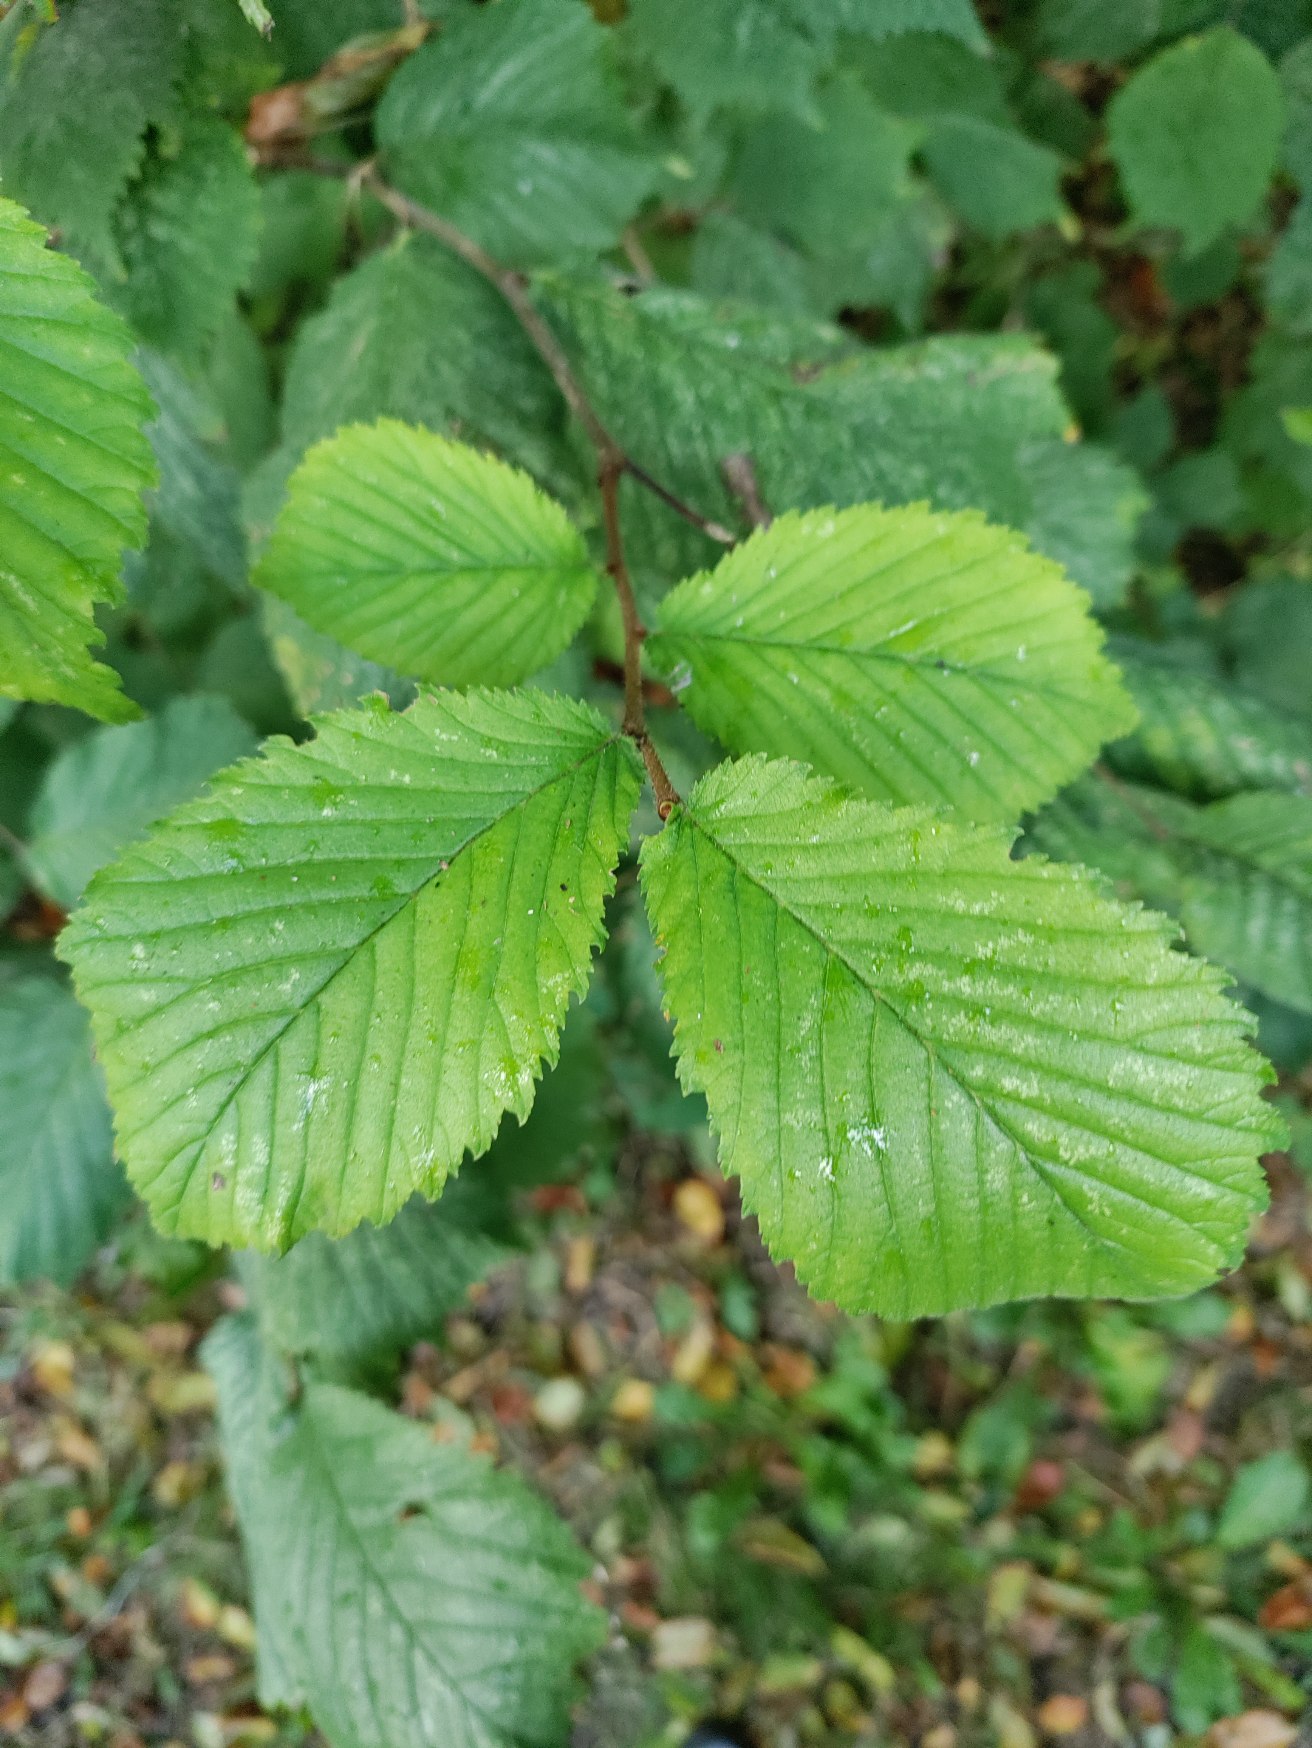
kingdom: Plantae
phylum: Tracheophyta
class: Magnoliopsida
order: Rosales
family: Ulmaceae
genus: Ulmus
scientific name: Ulmus glabra
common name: Skov-elm/storbladet elm
